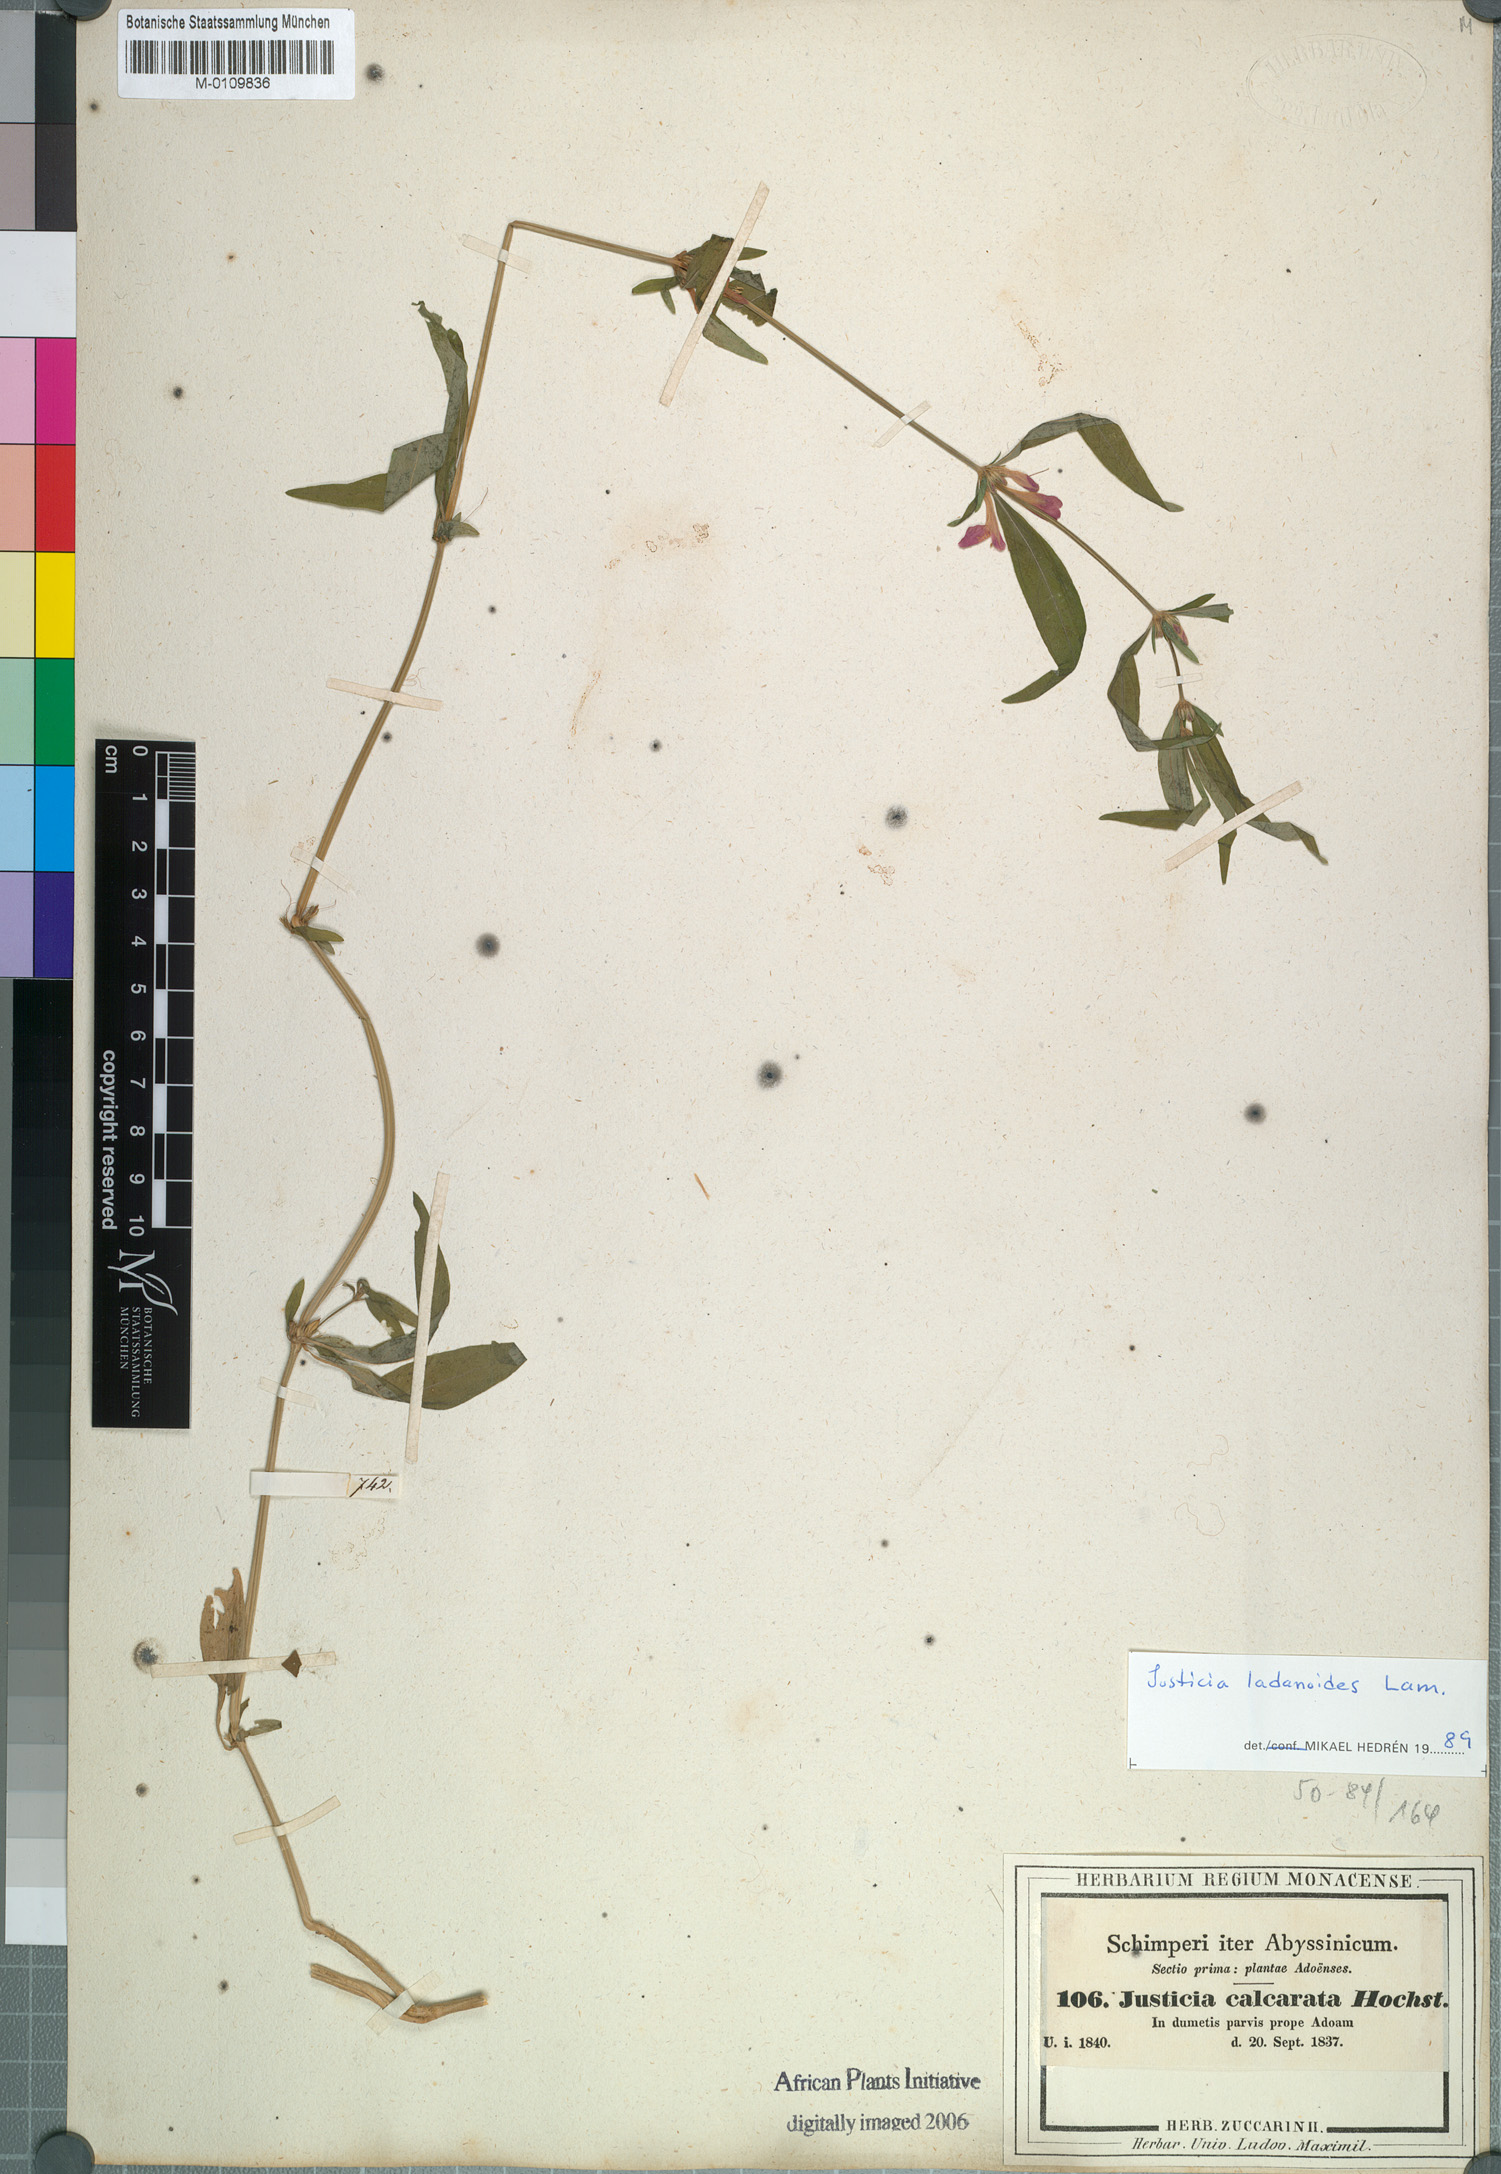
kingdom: Plantae
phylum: Tracheophyta
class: Magnoliopsida
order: Lamiales
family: Acanthaceae
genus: Justicia
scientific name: Justicia ladanoides
